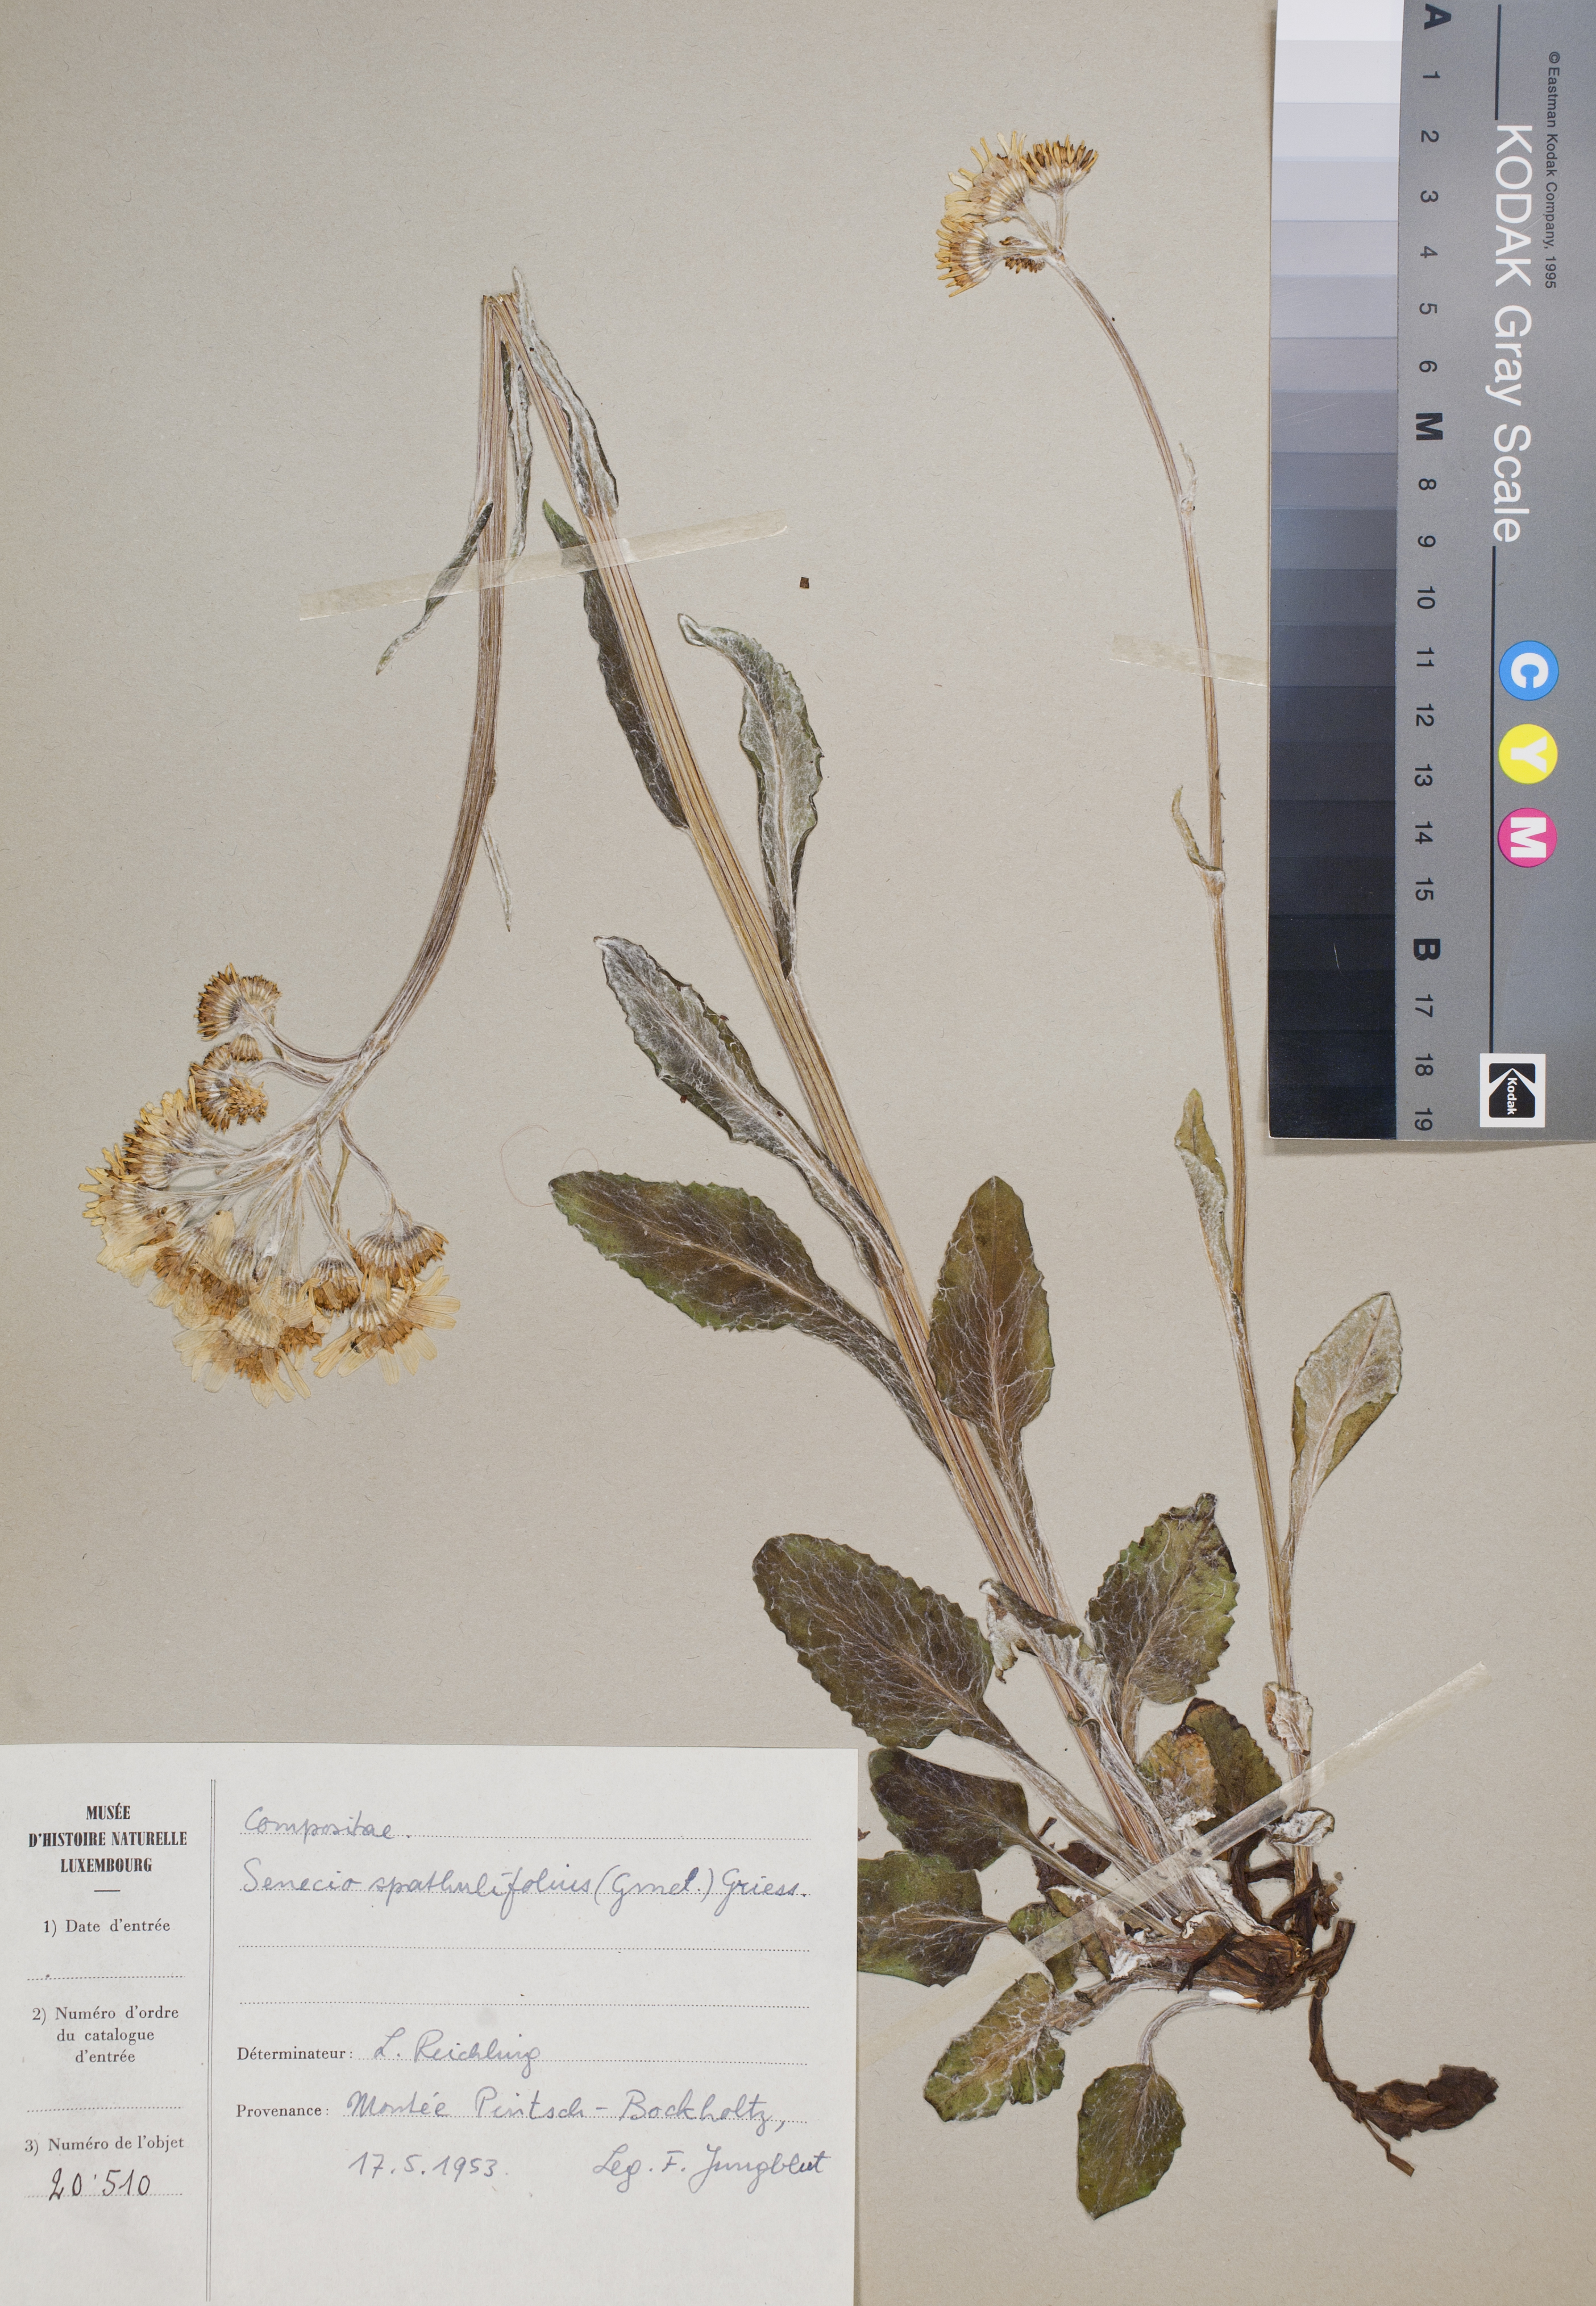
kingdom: Plantae
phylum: Tracheophyta
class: Magnoliopsida
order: Asterales
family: Asteraceae
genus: Tephroseris
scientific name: Tephroseris helenitis
